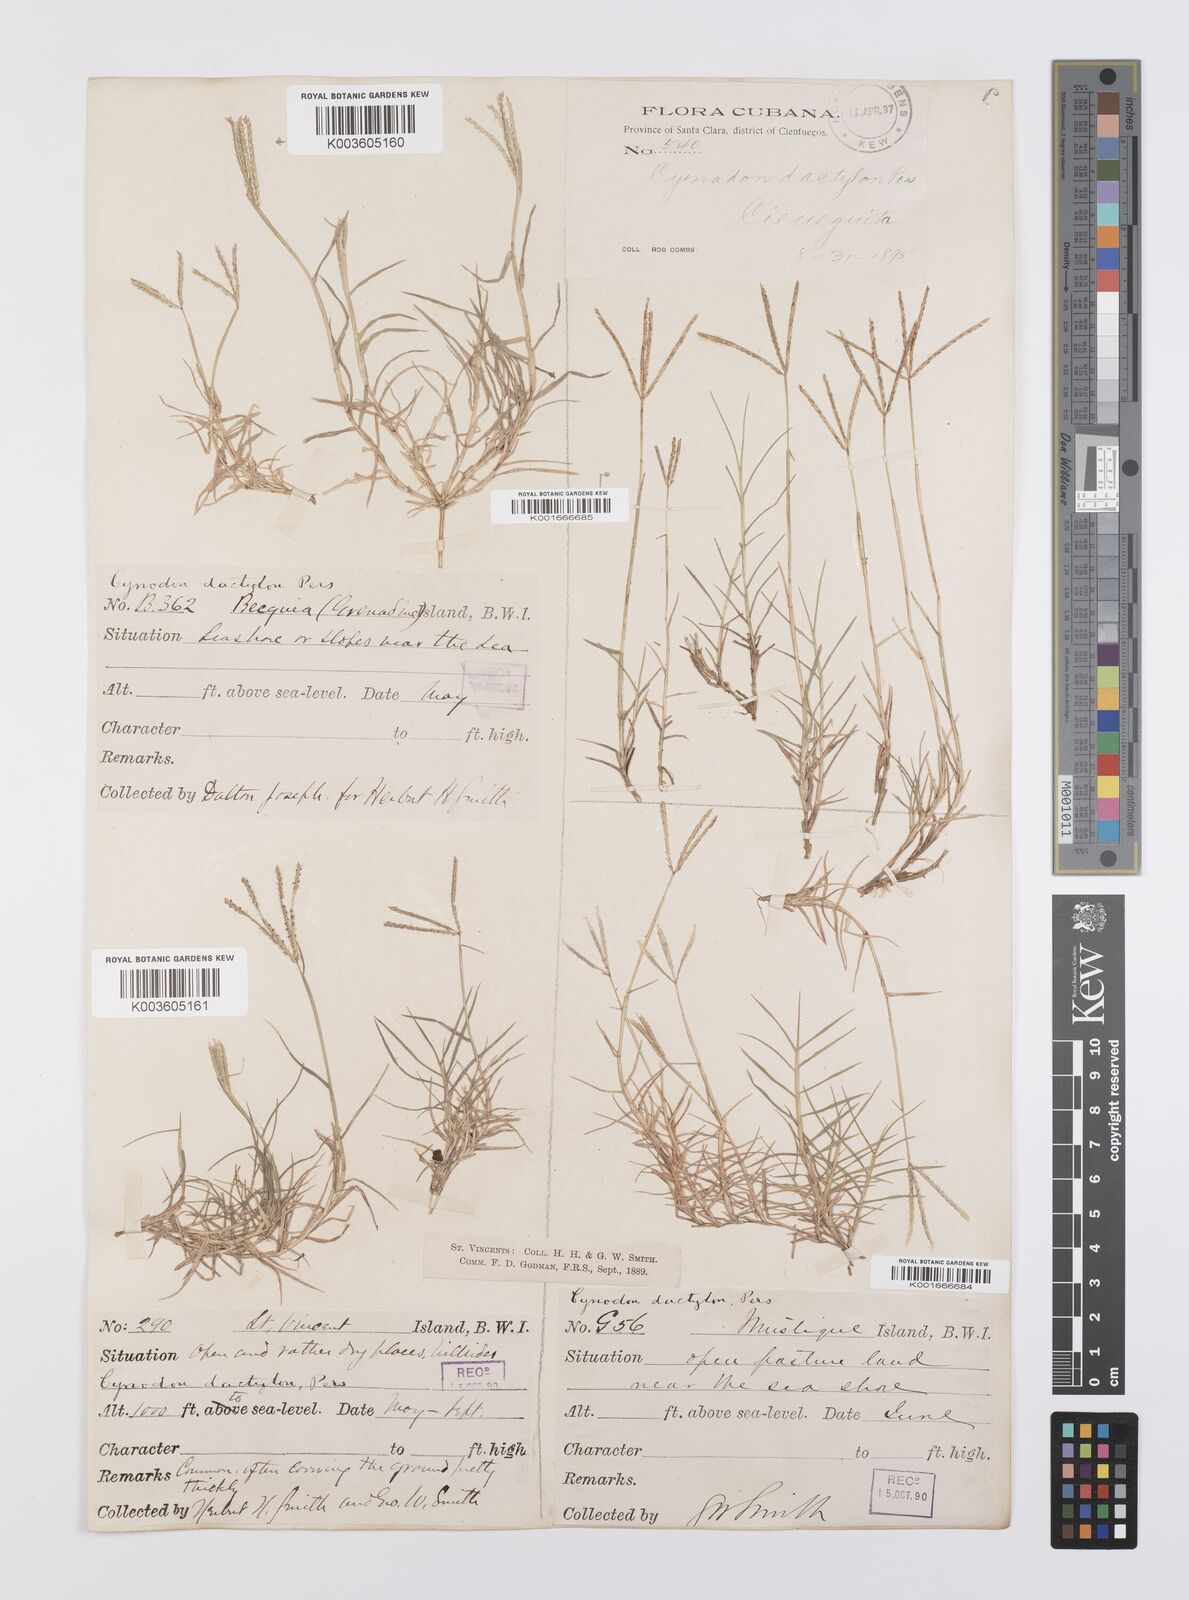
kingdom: Plantae
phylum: Tracheophyta
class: Liliopsida
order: Poales
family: Poaceae
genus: Cynodon
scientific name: Cynodon dactylon
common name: Bermuda grass
